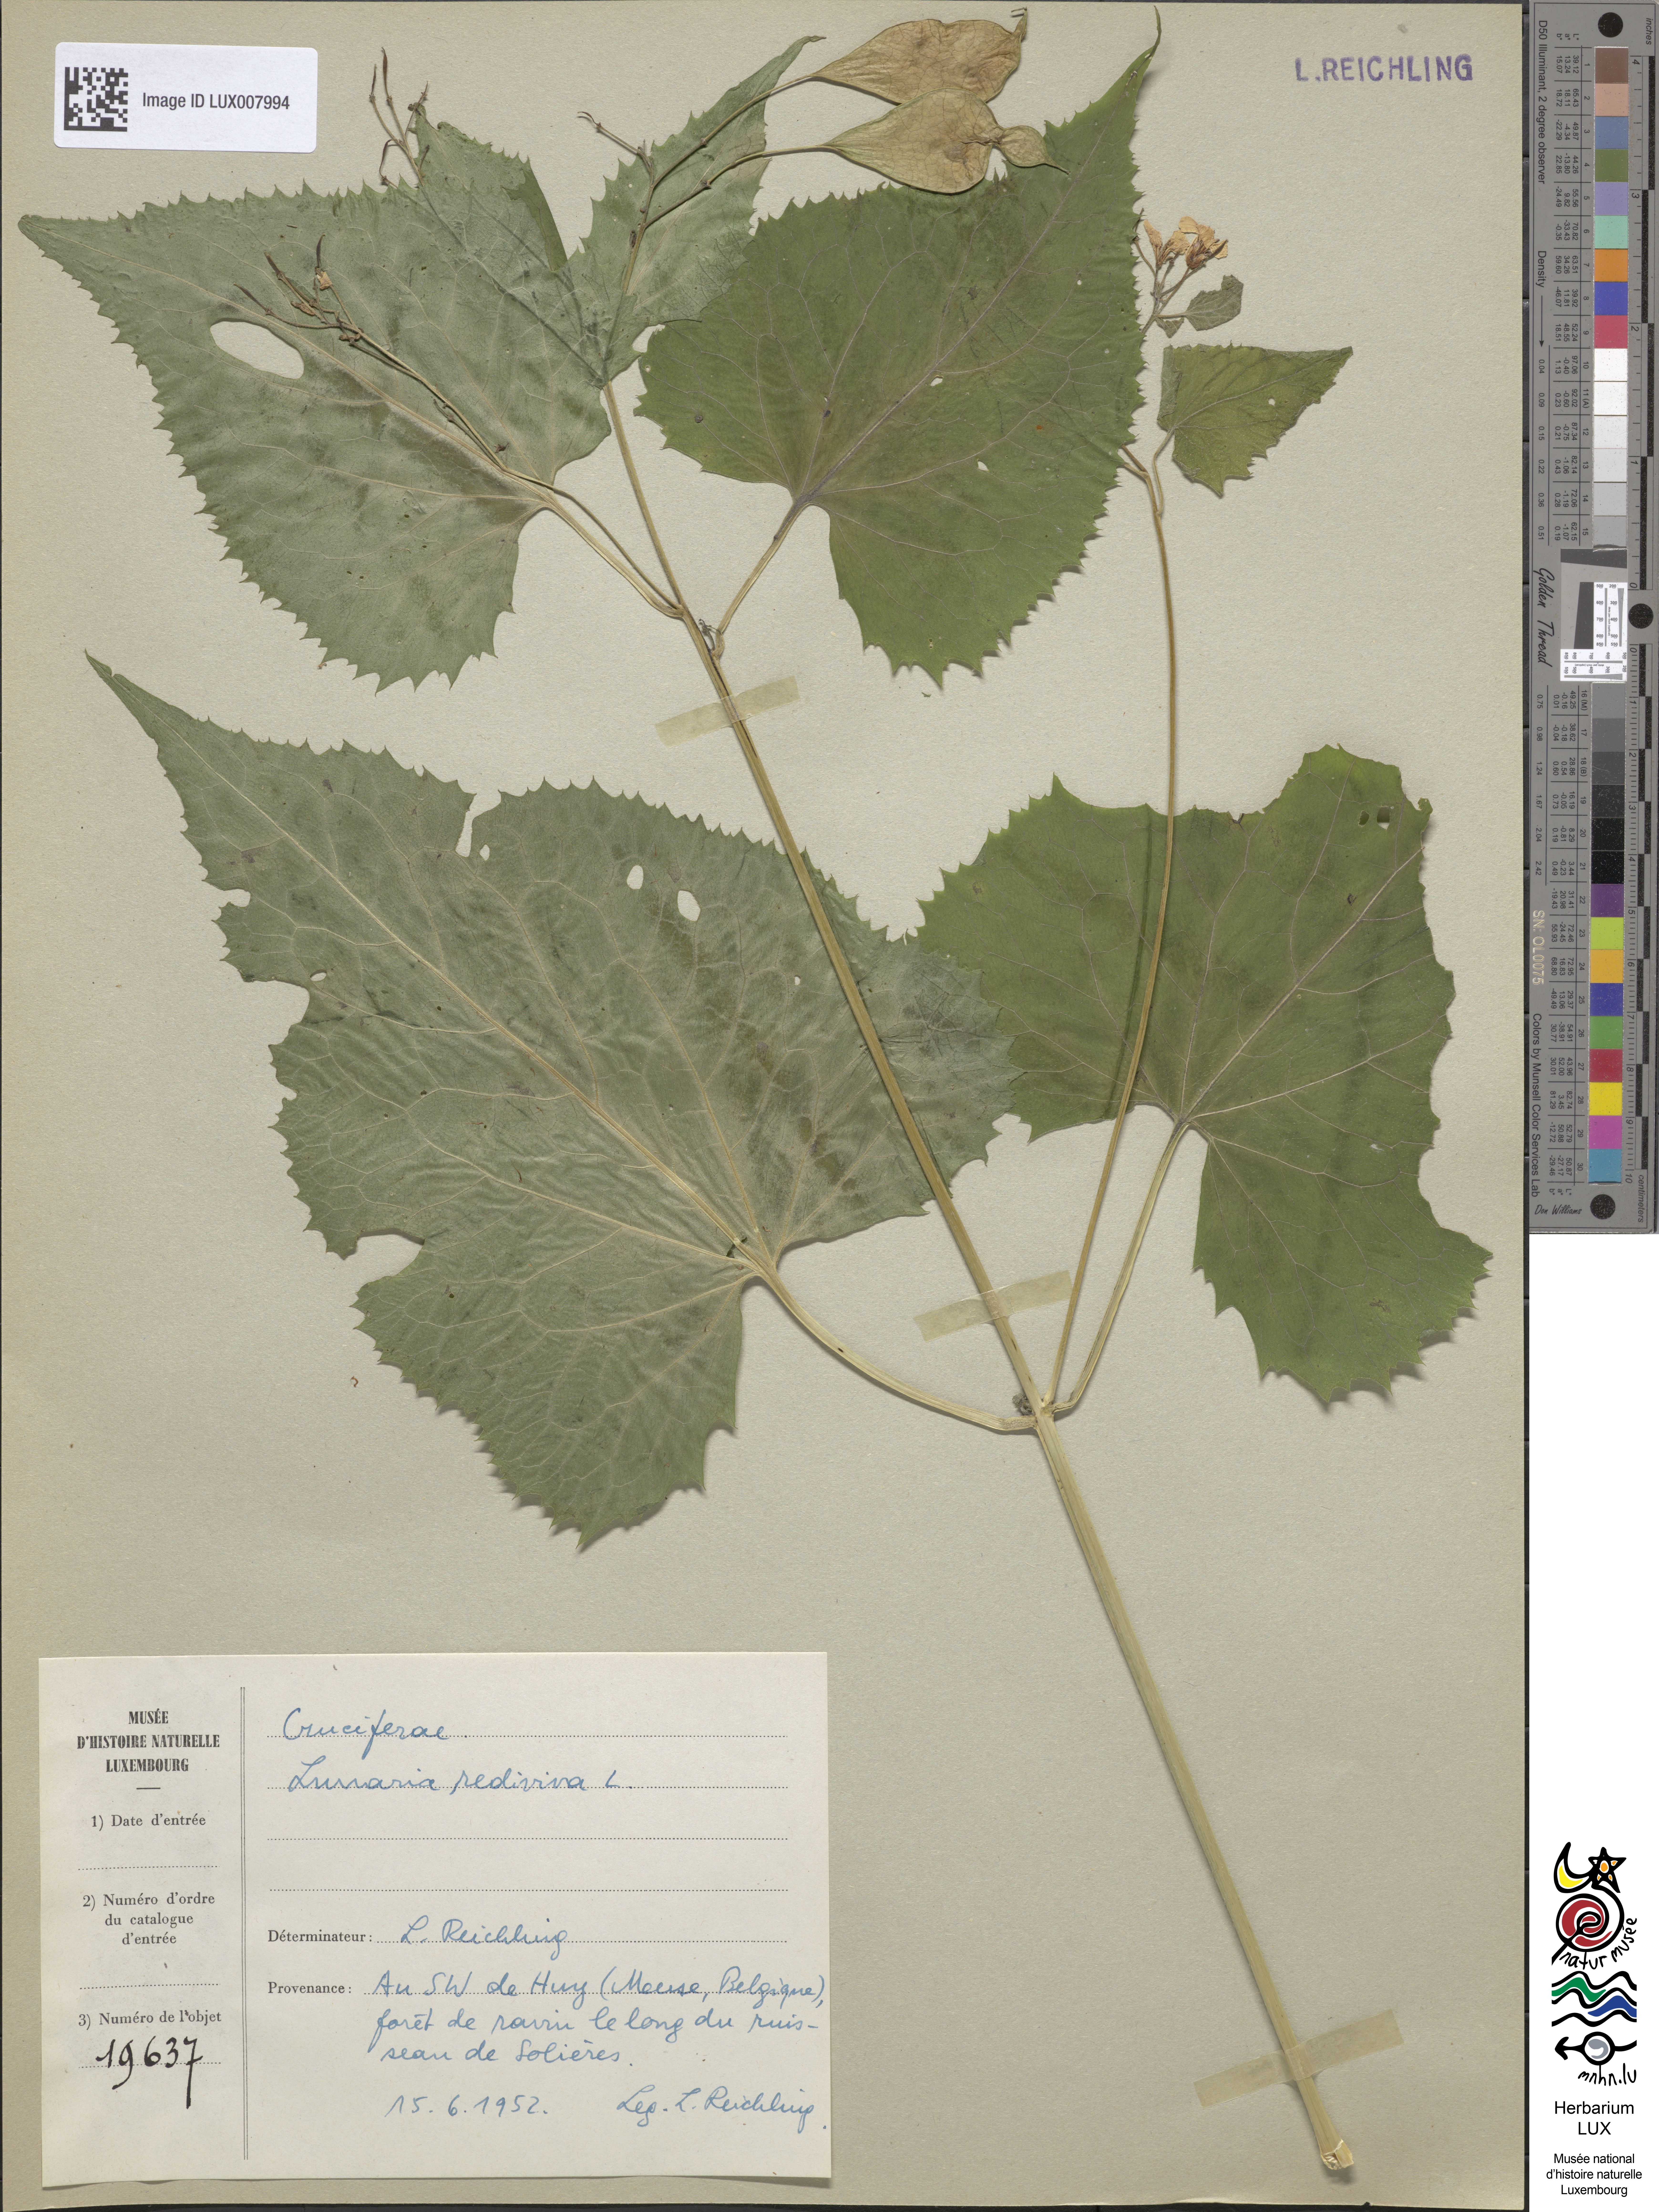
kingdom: Plantae
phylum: Tracheophyta
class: Magnoliopsida
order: Brassicales
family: Brassicaceae
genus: Lunaria
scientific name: Lunaria rediviva
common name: Perennial honesty
